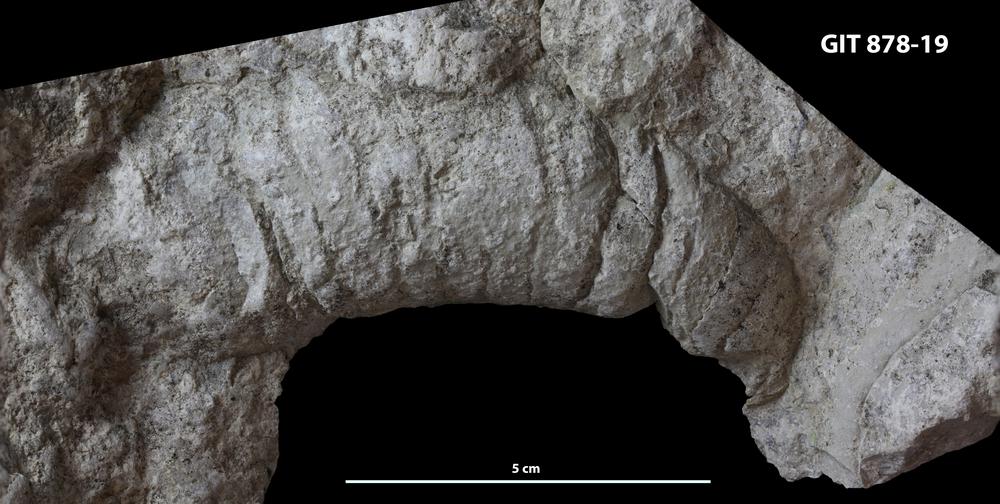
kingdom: Animalia
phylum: Mollusca
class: Cephalopoda
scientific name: Cephalopoda
